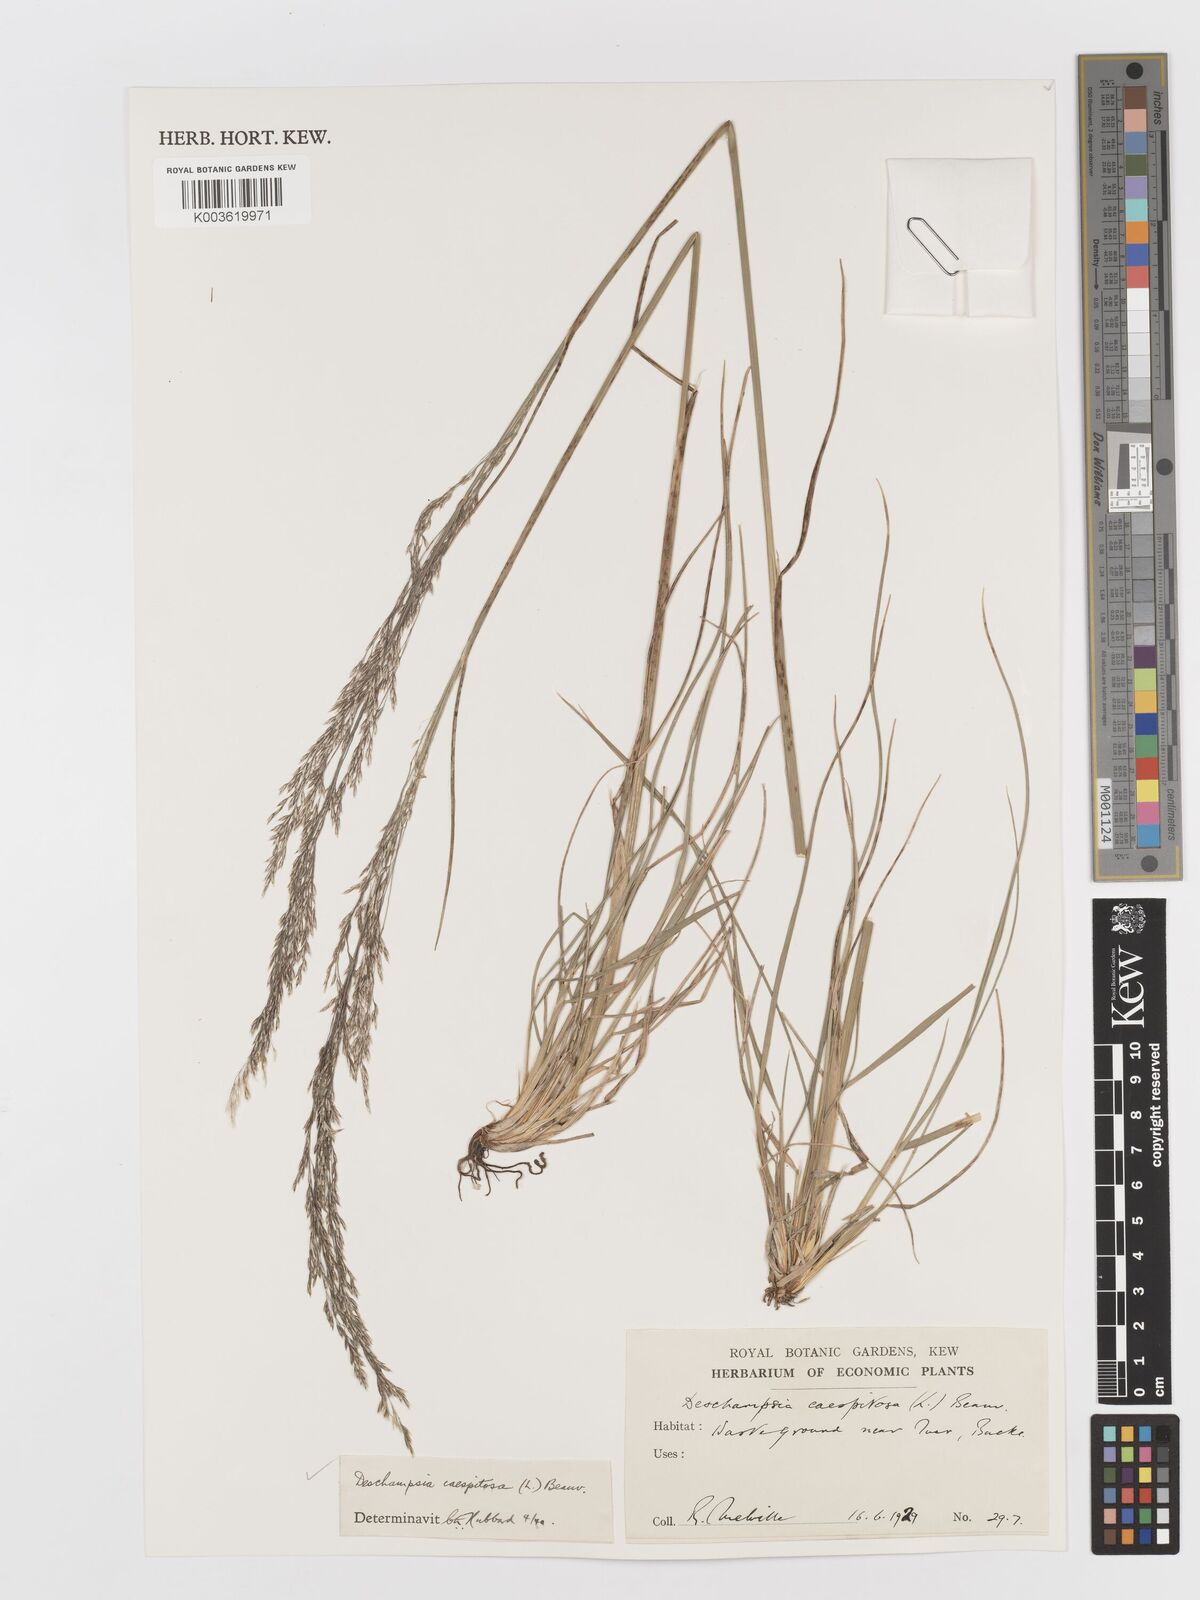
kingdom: Plantae
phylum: Tracheophyta
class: Liliopsida
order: Poales
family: Poaceae
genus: Deschampsia
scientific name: Deschampsia cespitosa
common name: Tufted hair-grass
